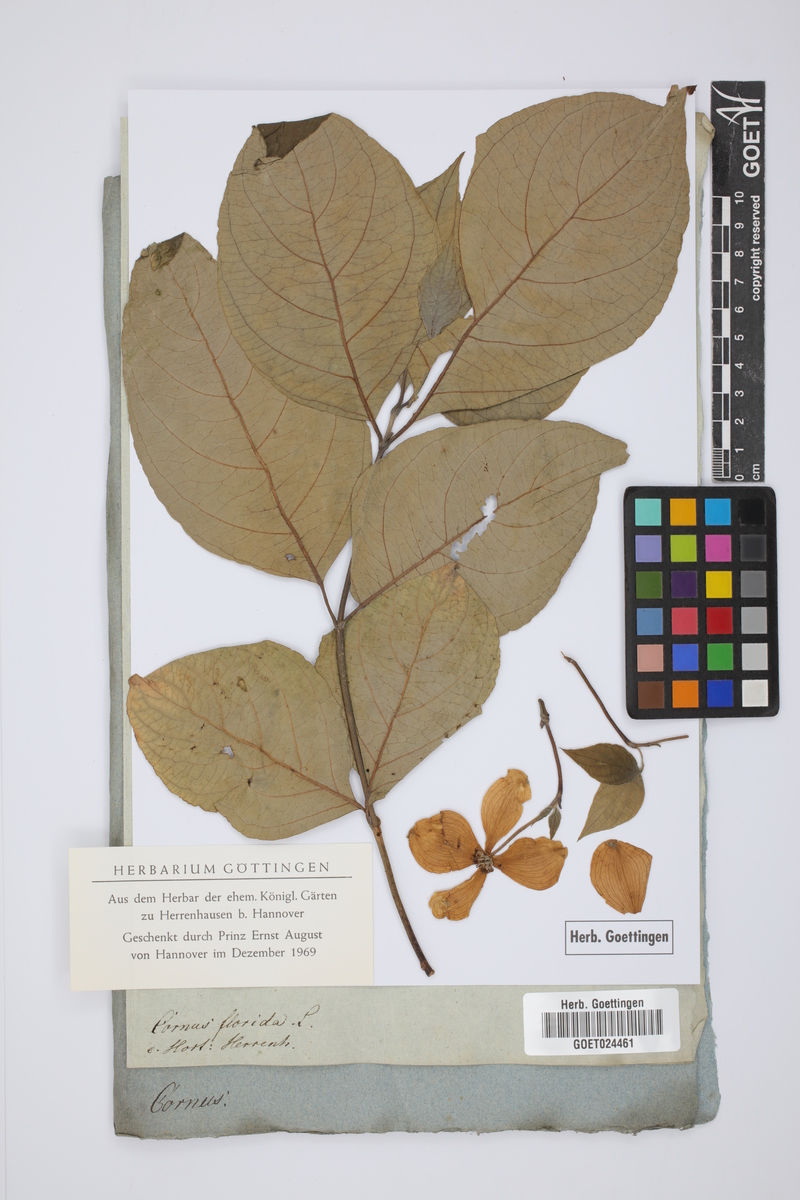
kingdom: Plantae
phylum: Tracheophyta
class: Magnoliopsida
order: Cornales
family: Cornaceae
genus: Cornus
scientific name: Cornus florida
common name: Flowering dogwood
